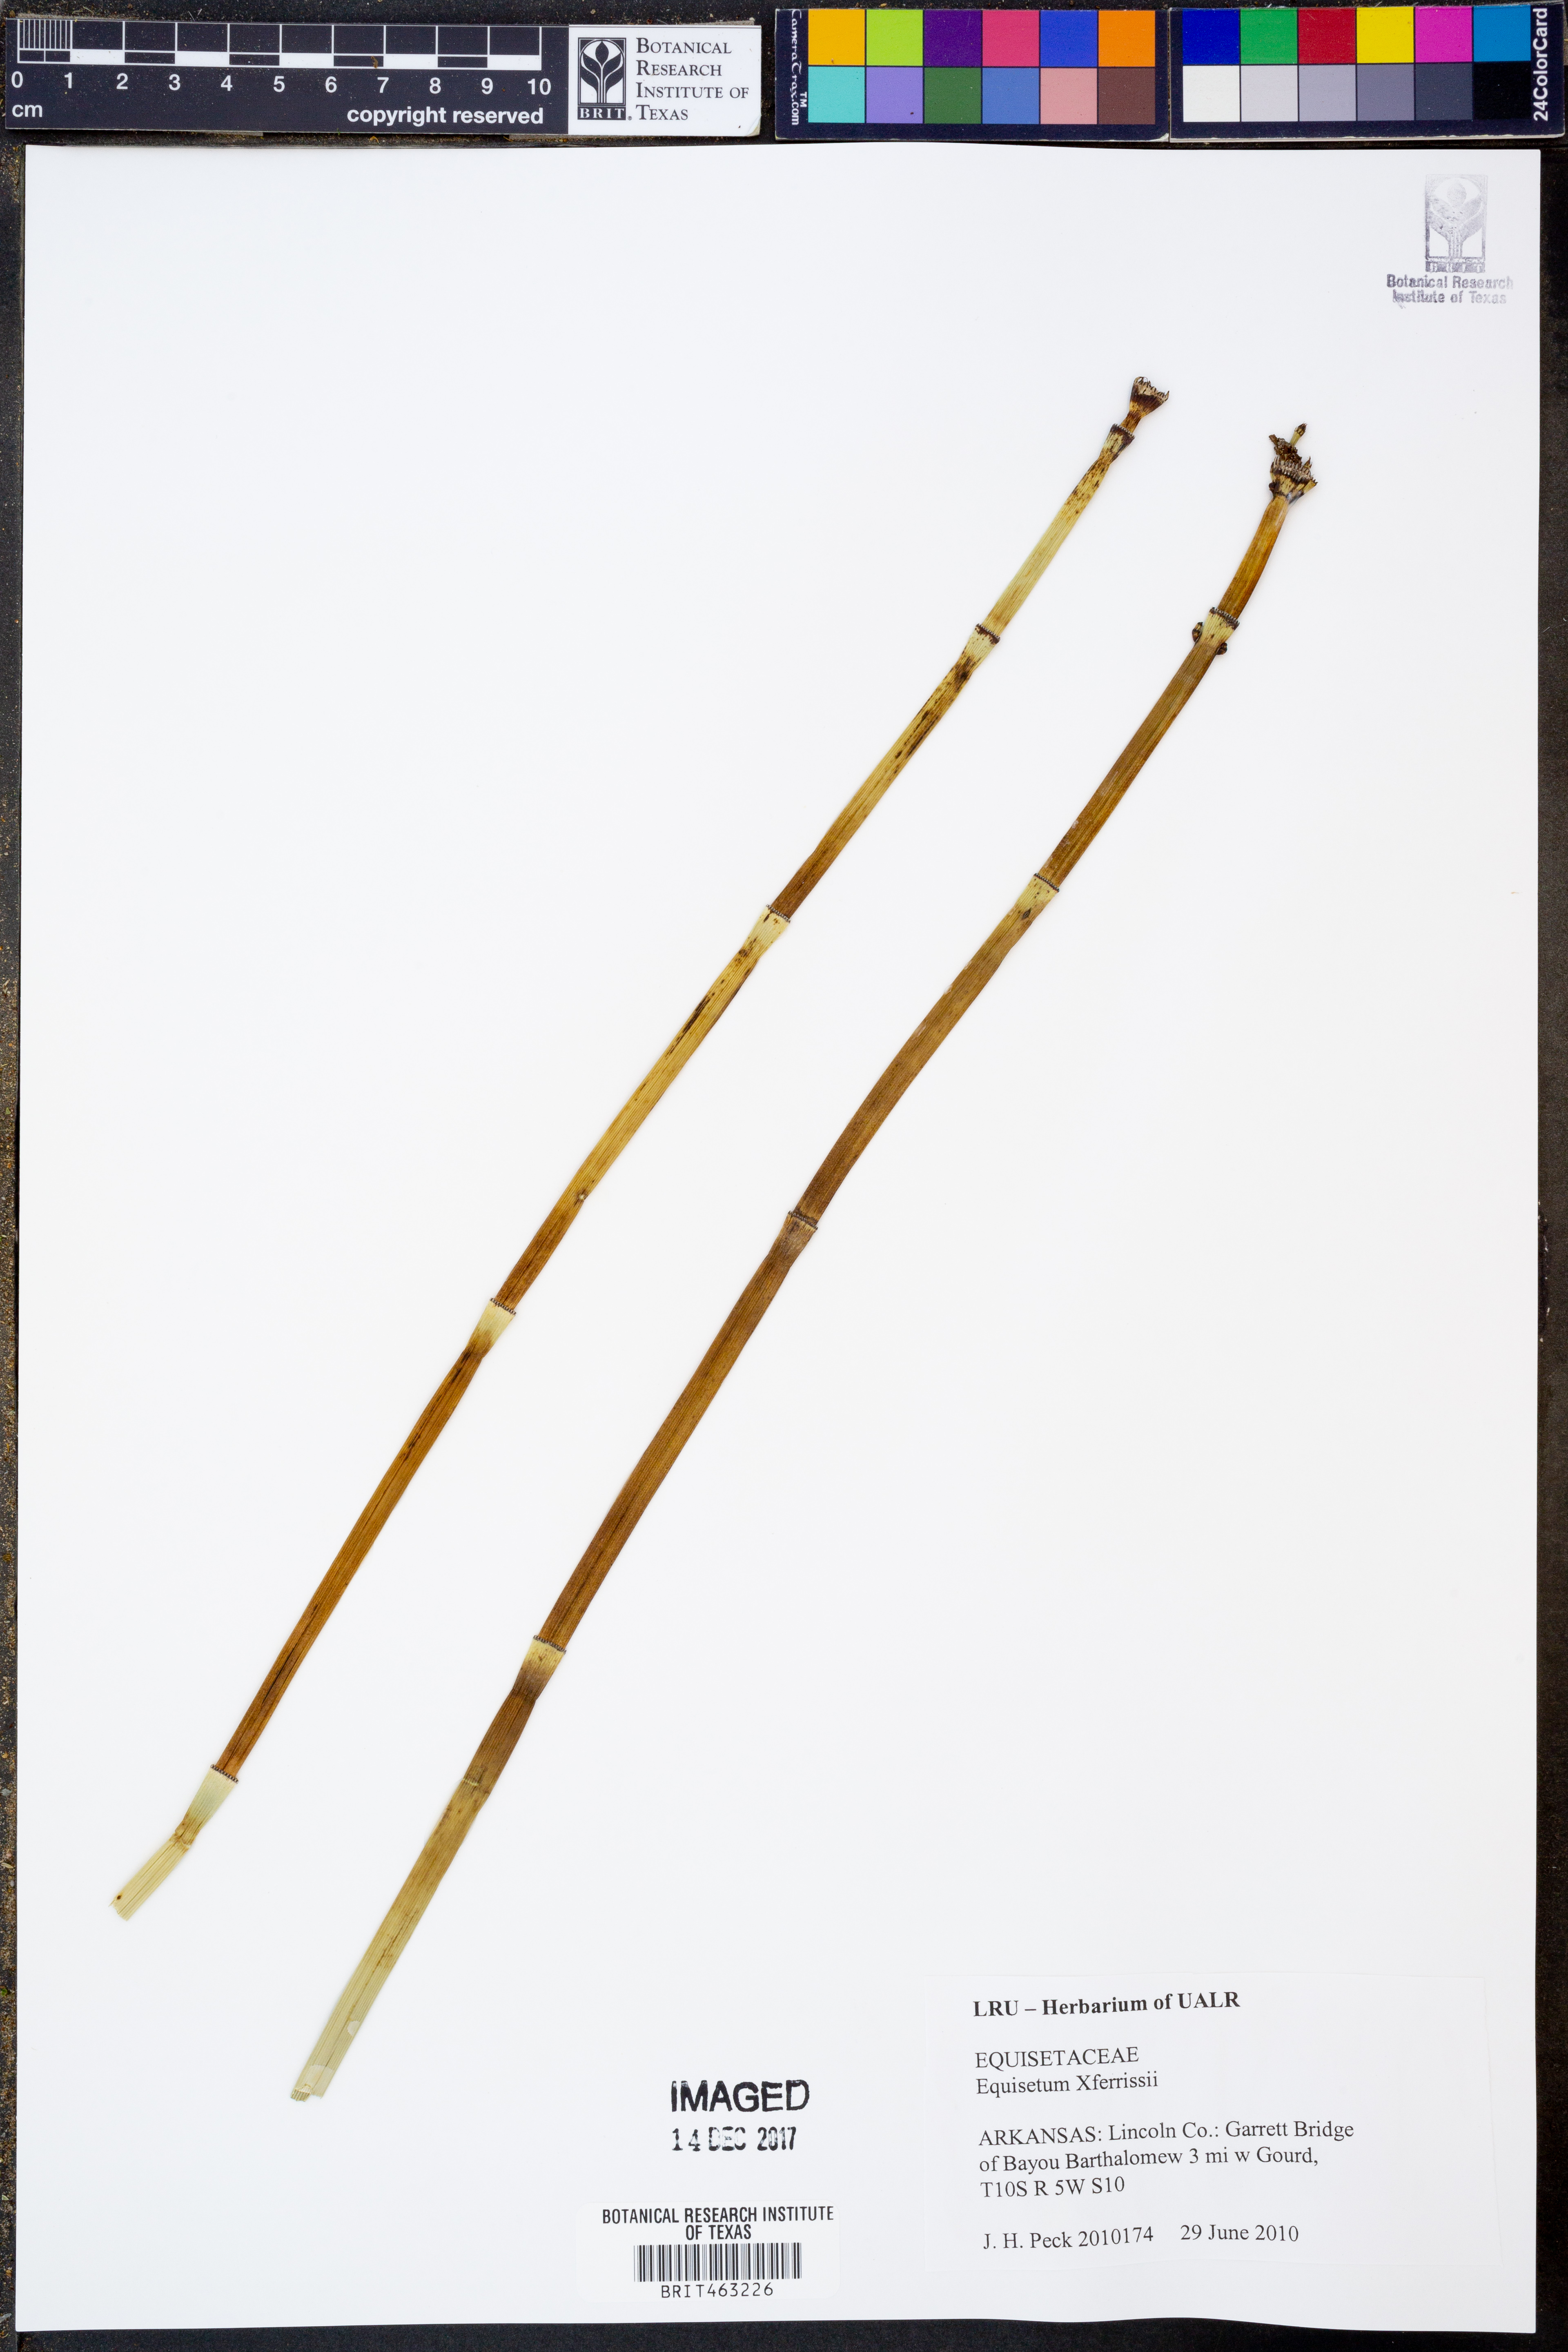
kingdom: Plantae
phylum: Tracheophyta
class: Polypodiopsida
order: Equisetales
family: Equisetaceae
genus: Equisetum
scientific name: Equisetum ferrissii
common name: Ferriss' horsetail
